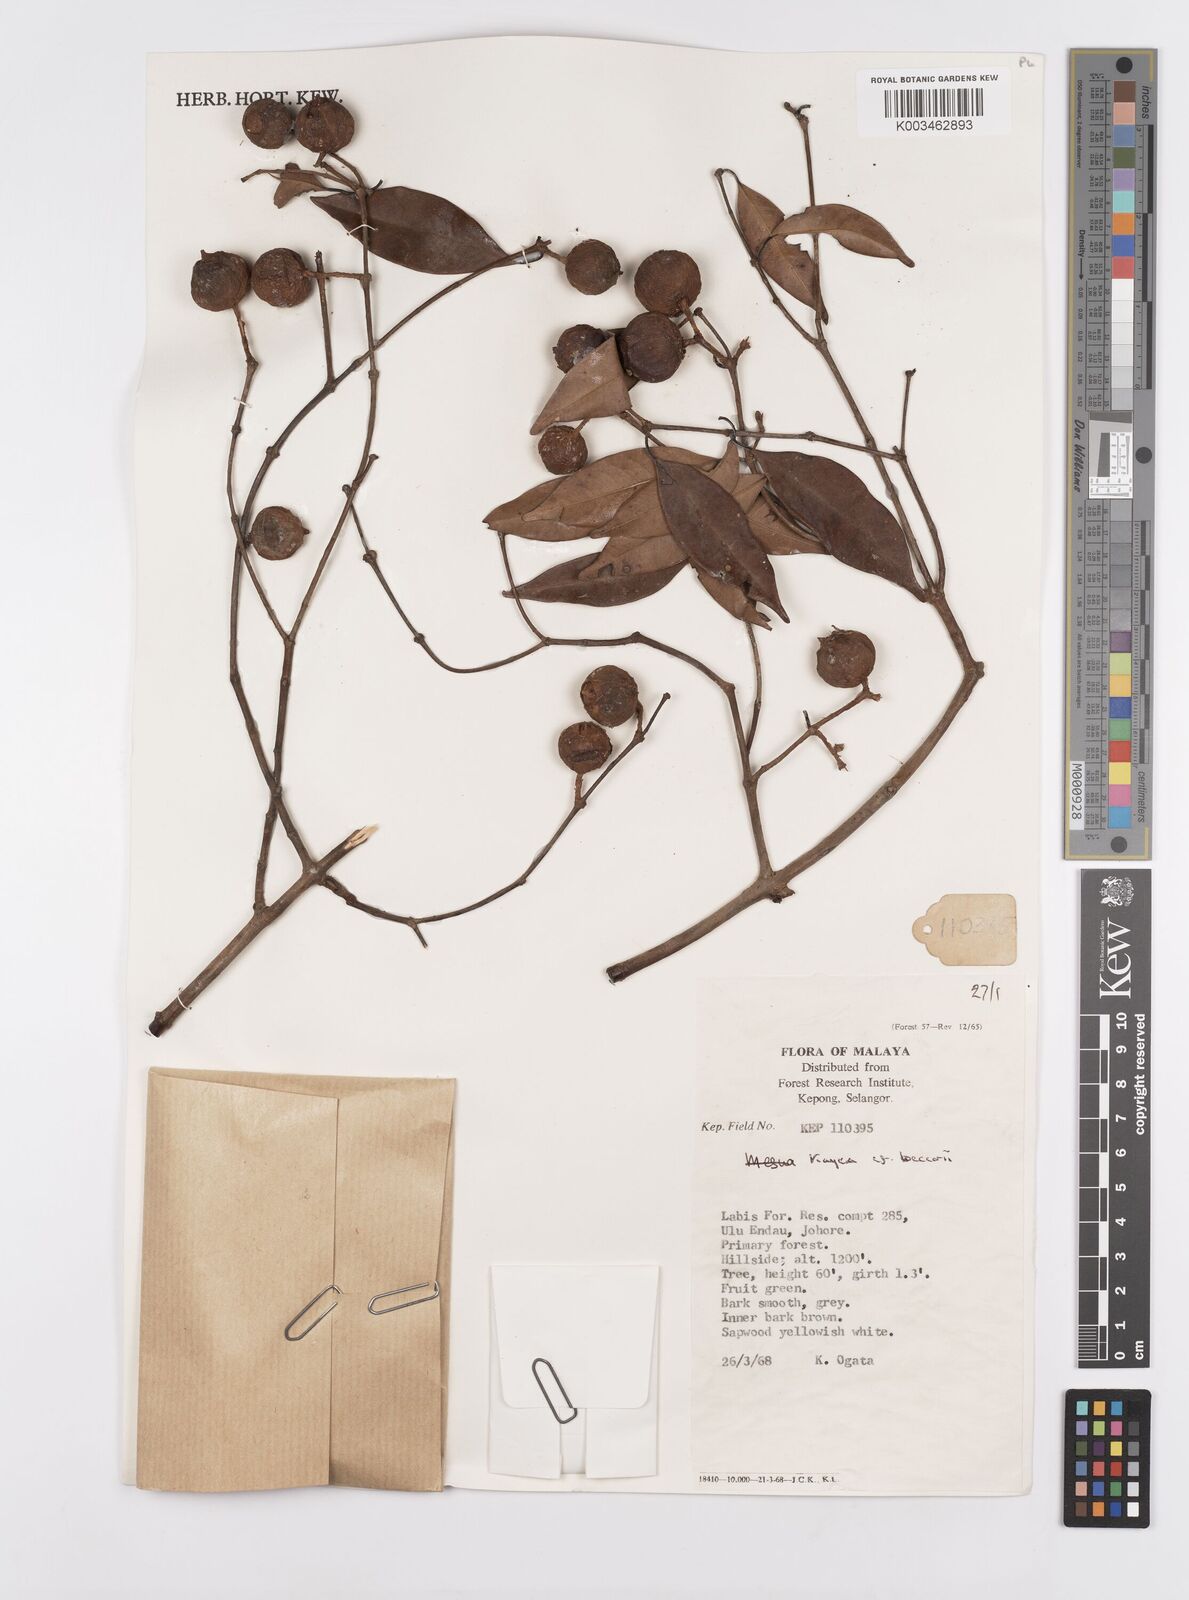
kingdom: Plantae
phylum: Tracheophyta
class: Magnoliopsida
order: Malpighiales
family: Calophyllaceae
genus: Kayea
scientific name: Kayea beccariana
